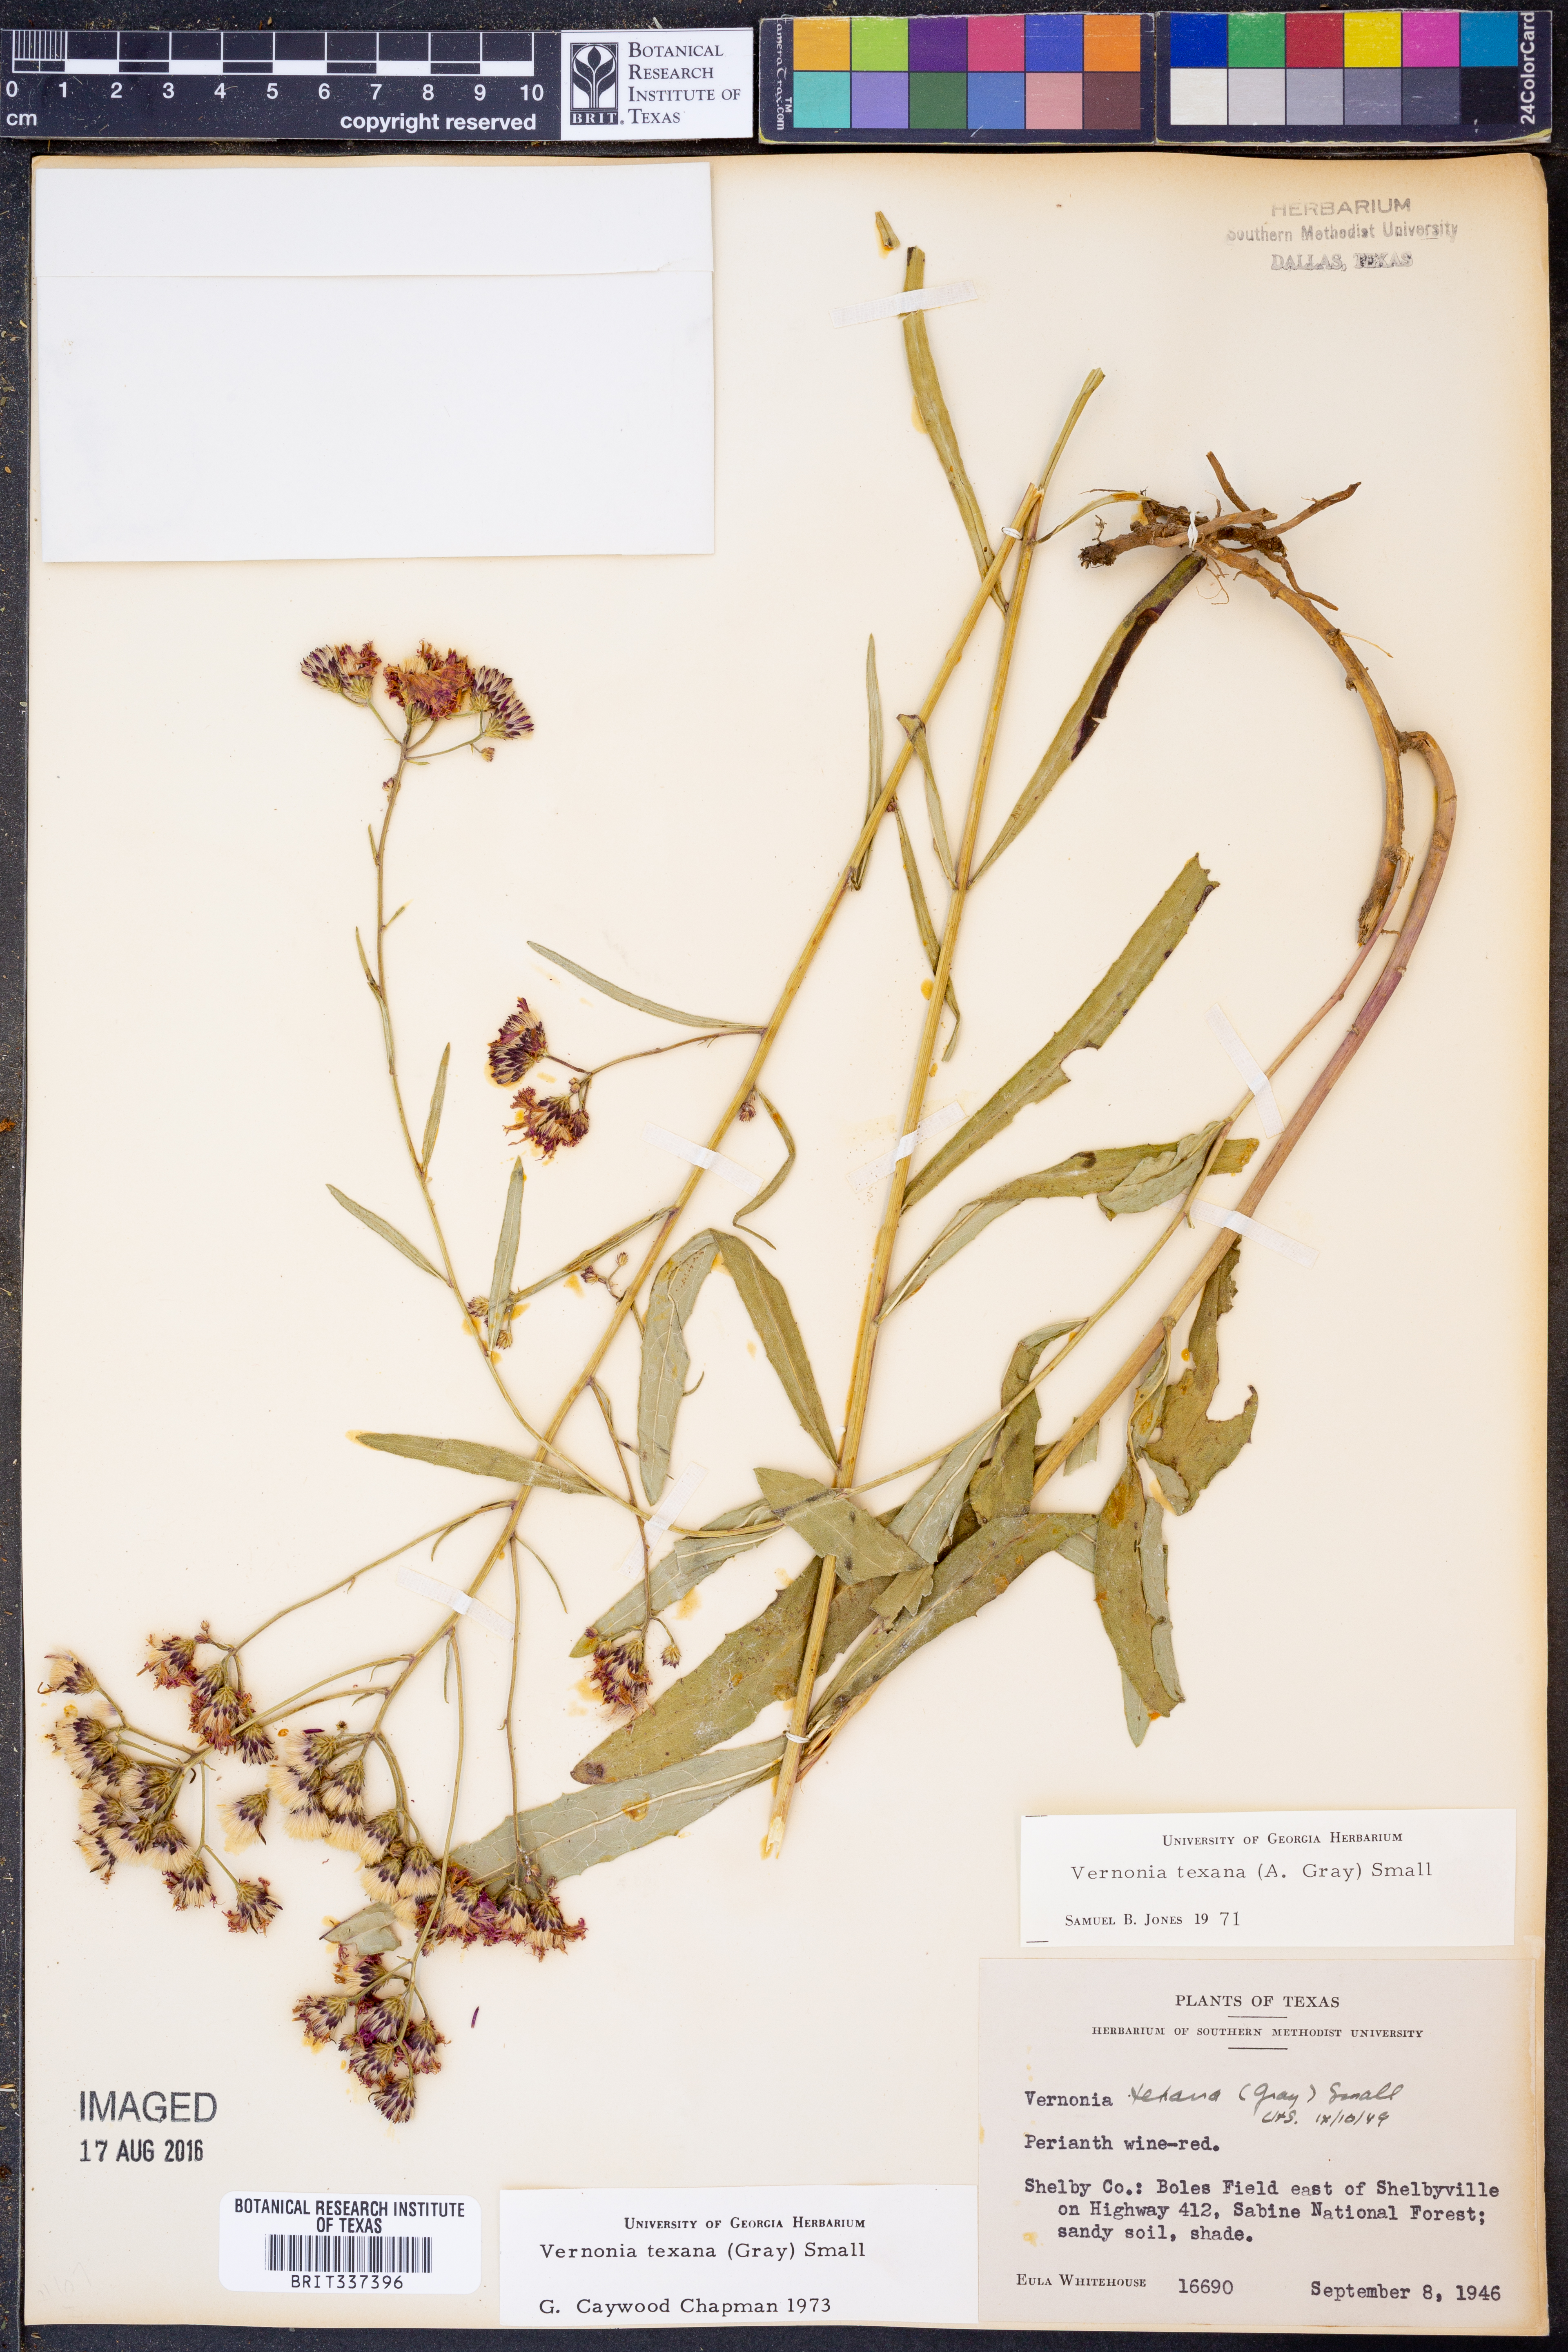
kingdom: Plantae
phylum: Tracheophyta
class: Magnoliopsida
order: Asterales
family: Asteraceae
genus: Vernonia
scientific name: Vernonia texana
